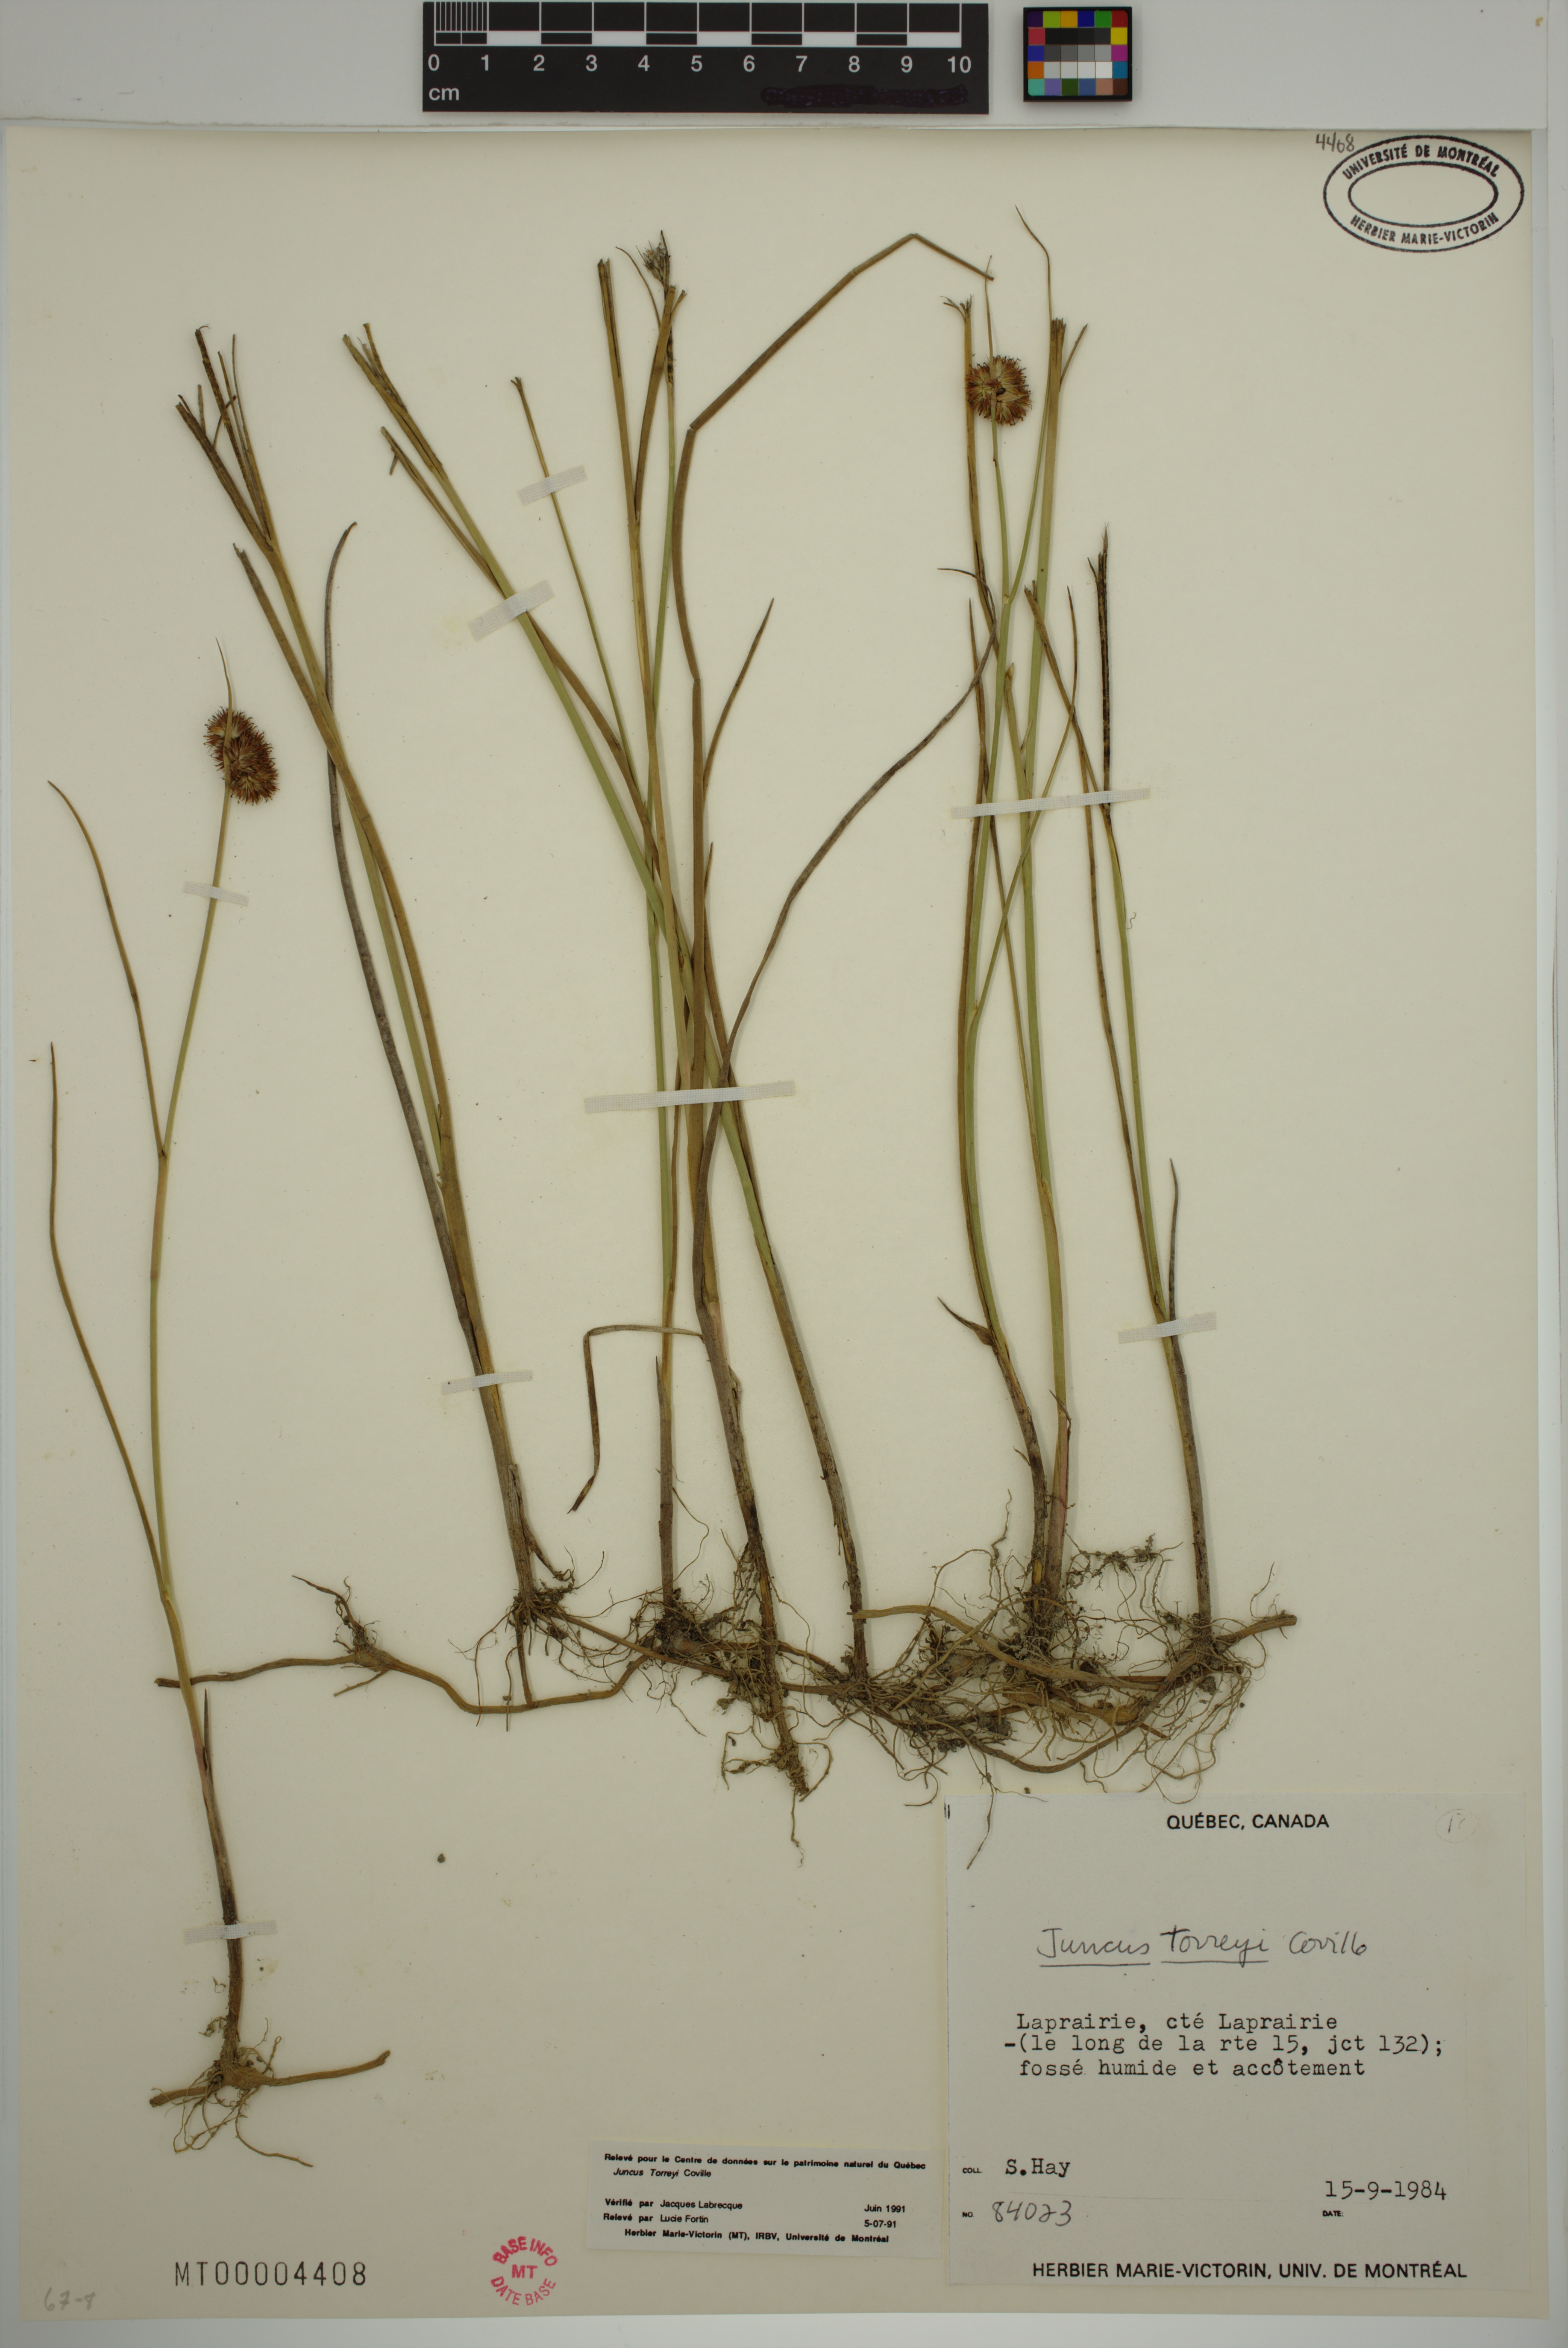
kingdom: Plantae
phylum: Tracheophyta
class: Liliopsida
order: Poales
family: Juncaceae
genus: Juncus
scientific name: Juncus torreyi
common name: Torrey's rush
